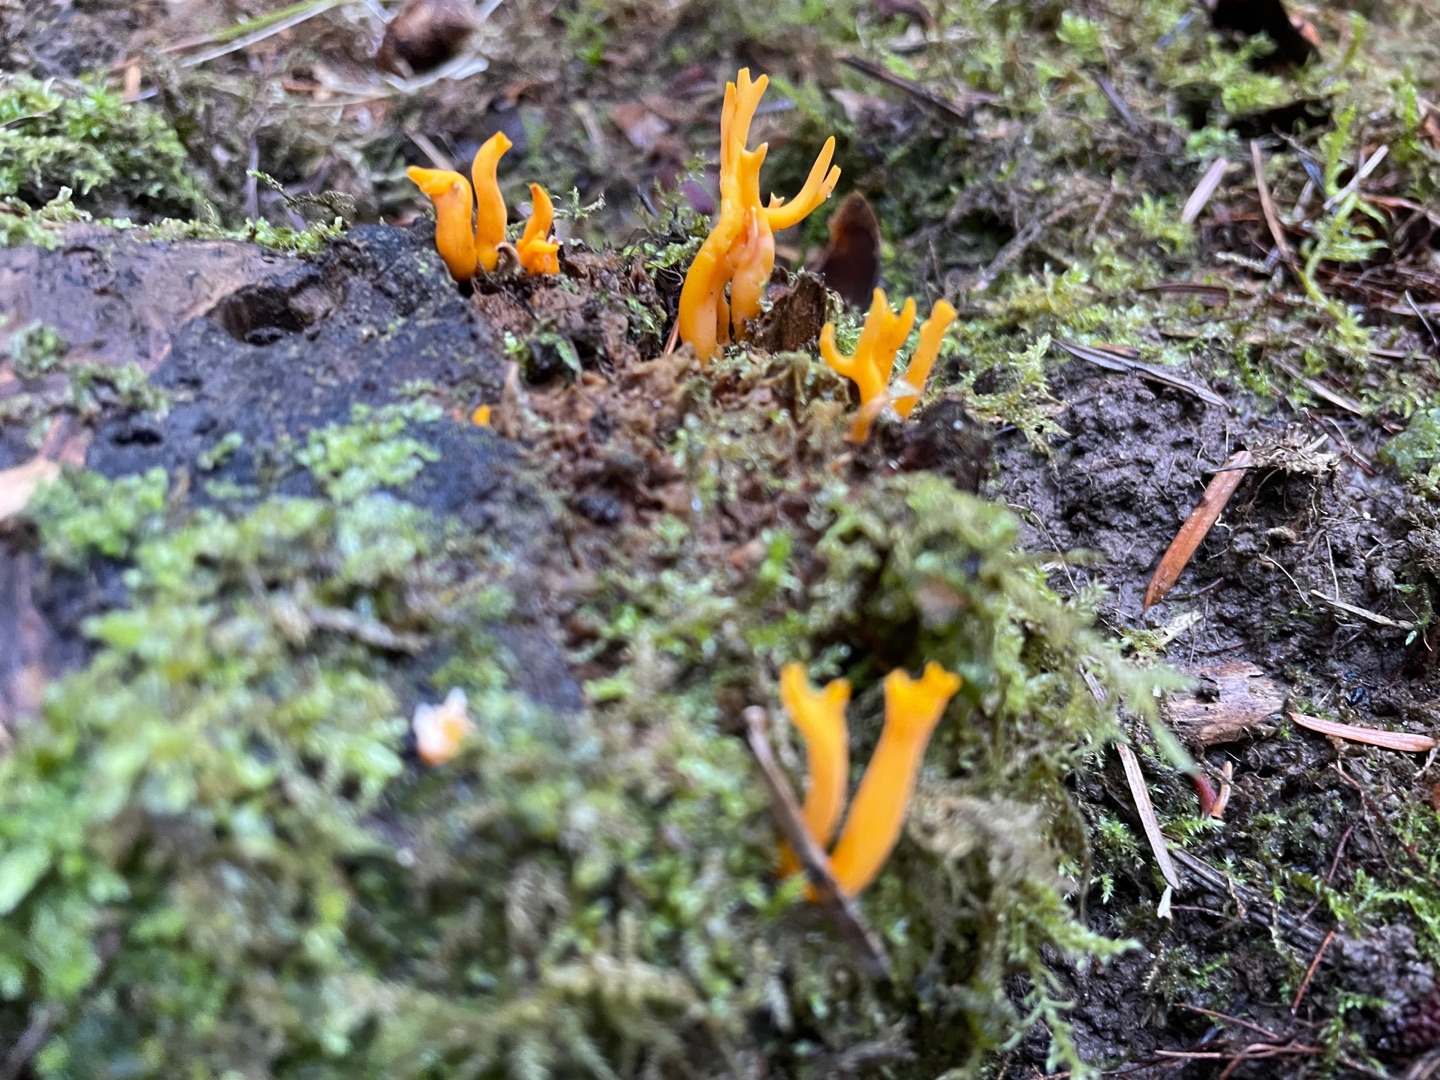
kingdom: Fungi
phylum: Basidiomycota
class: Dacrymycetes
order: Dacrymycetales
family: Dacrymycetaceae
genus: Calocera
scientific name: Calocera viscosa
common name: Almindelig guldgaffel
